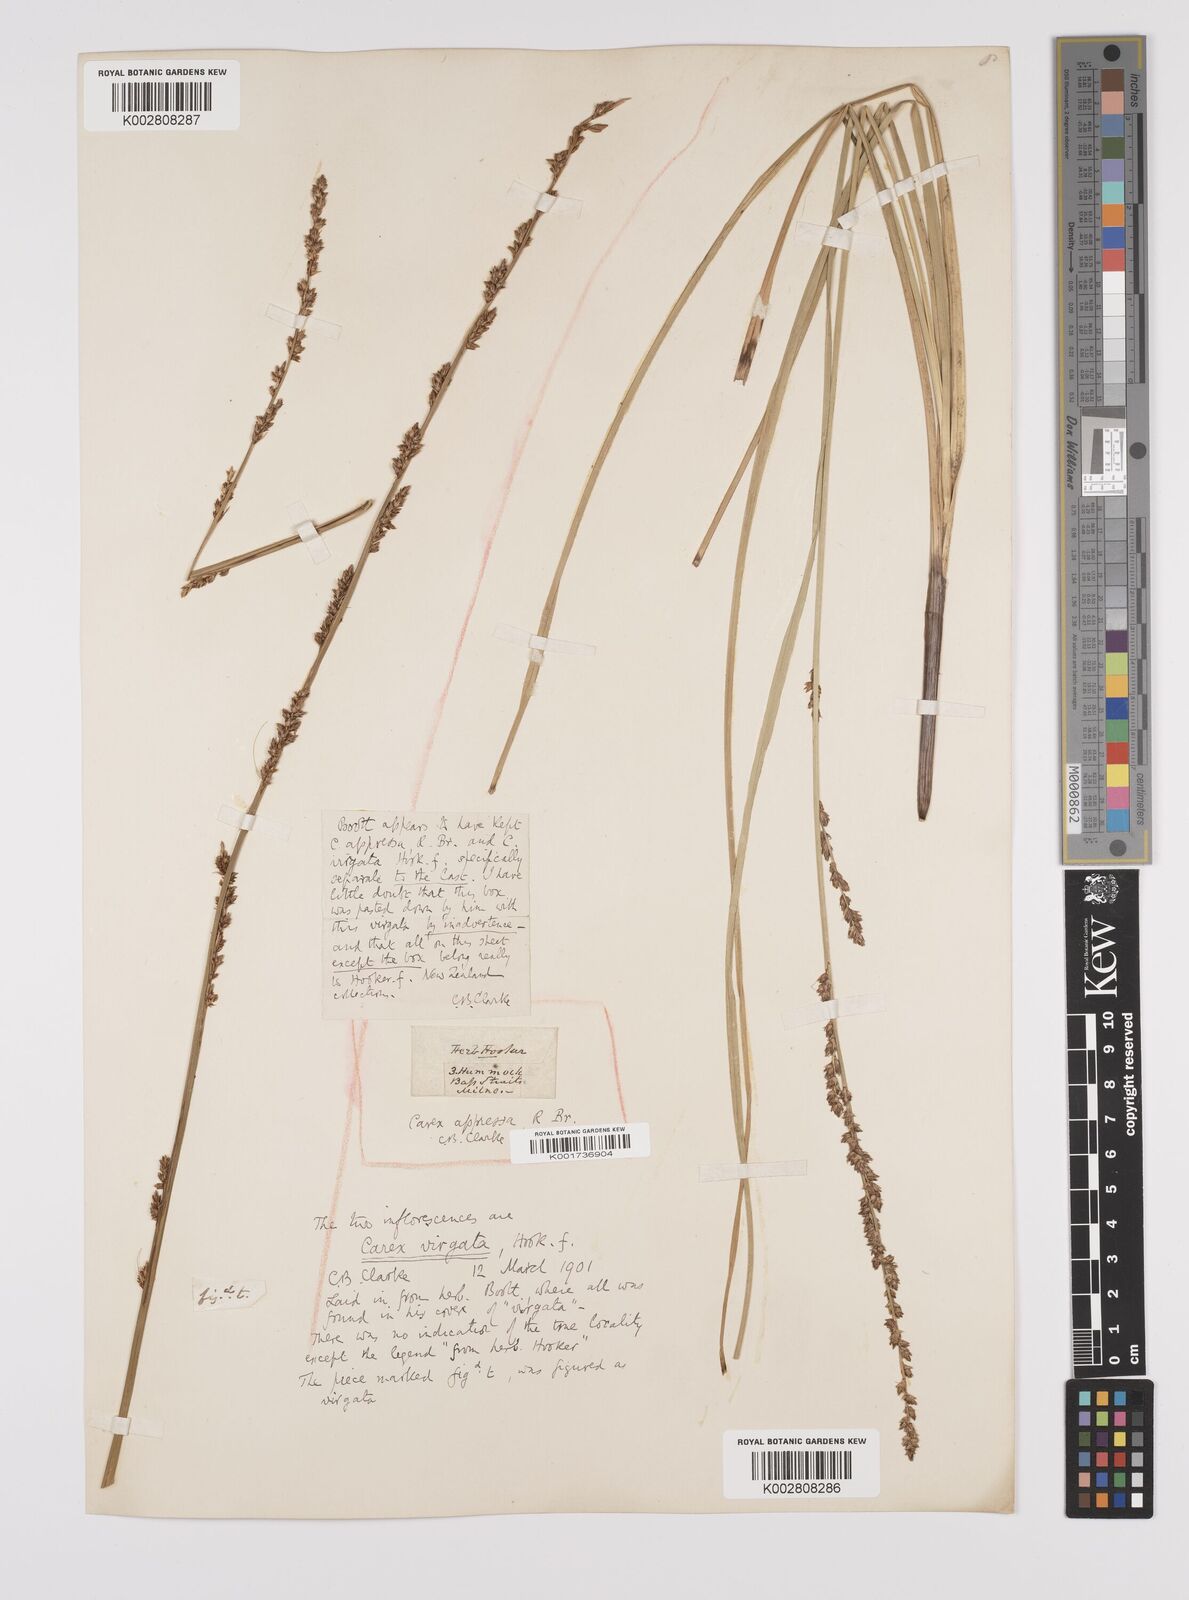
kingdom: Plantae
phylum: Tracheophyta
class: Liliopsida
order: Poales
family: Cyperaceae
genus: Carex
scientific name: Carex appressa
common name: Tussock sedge
